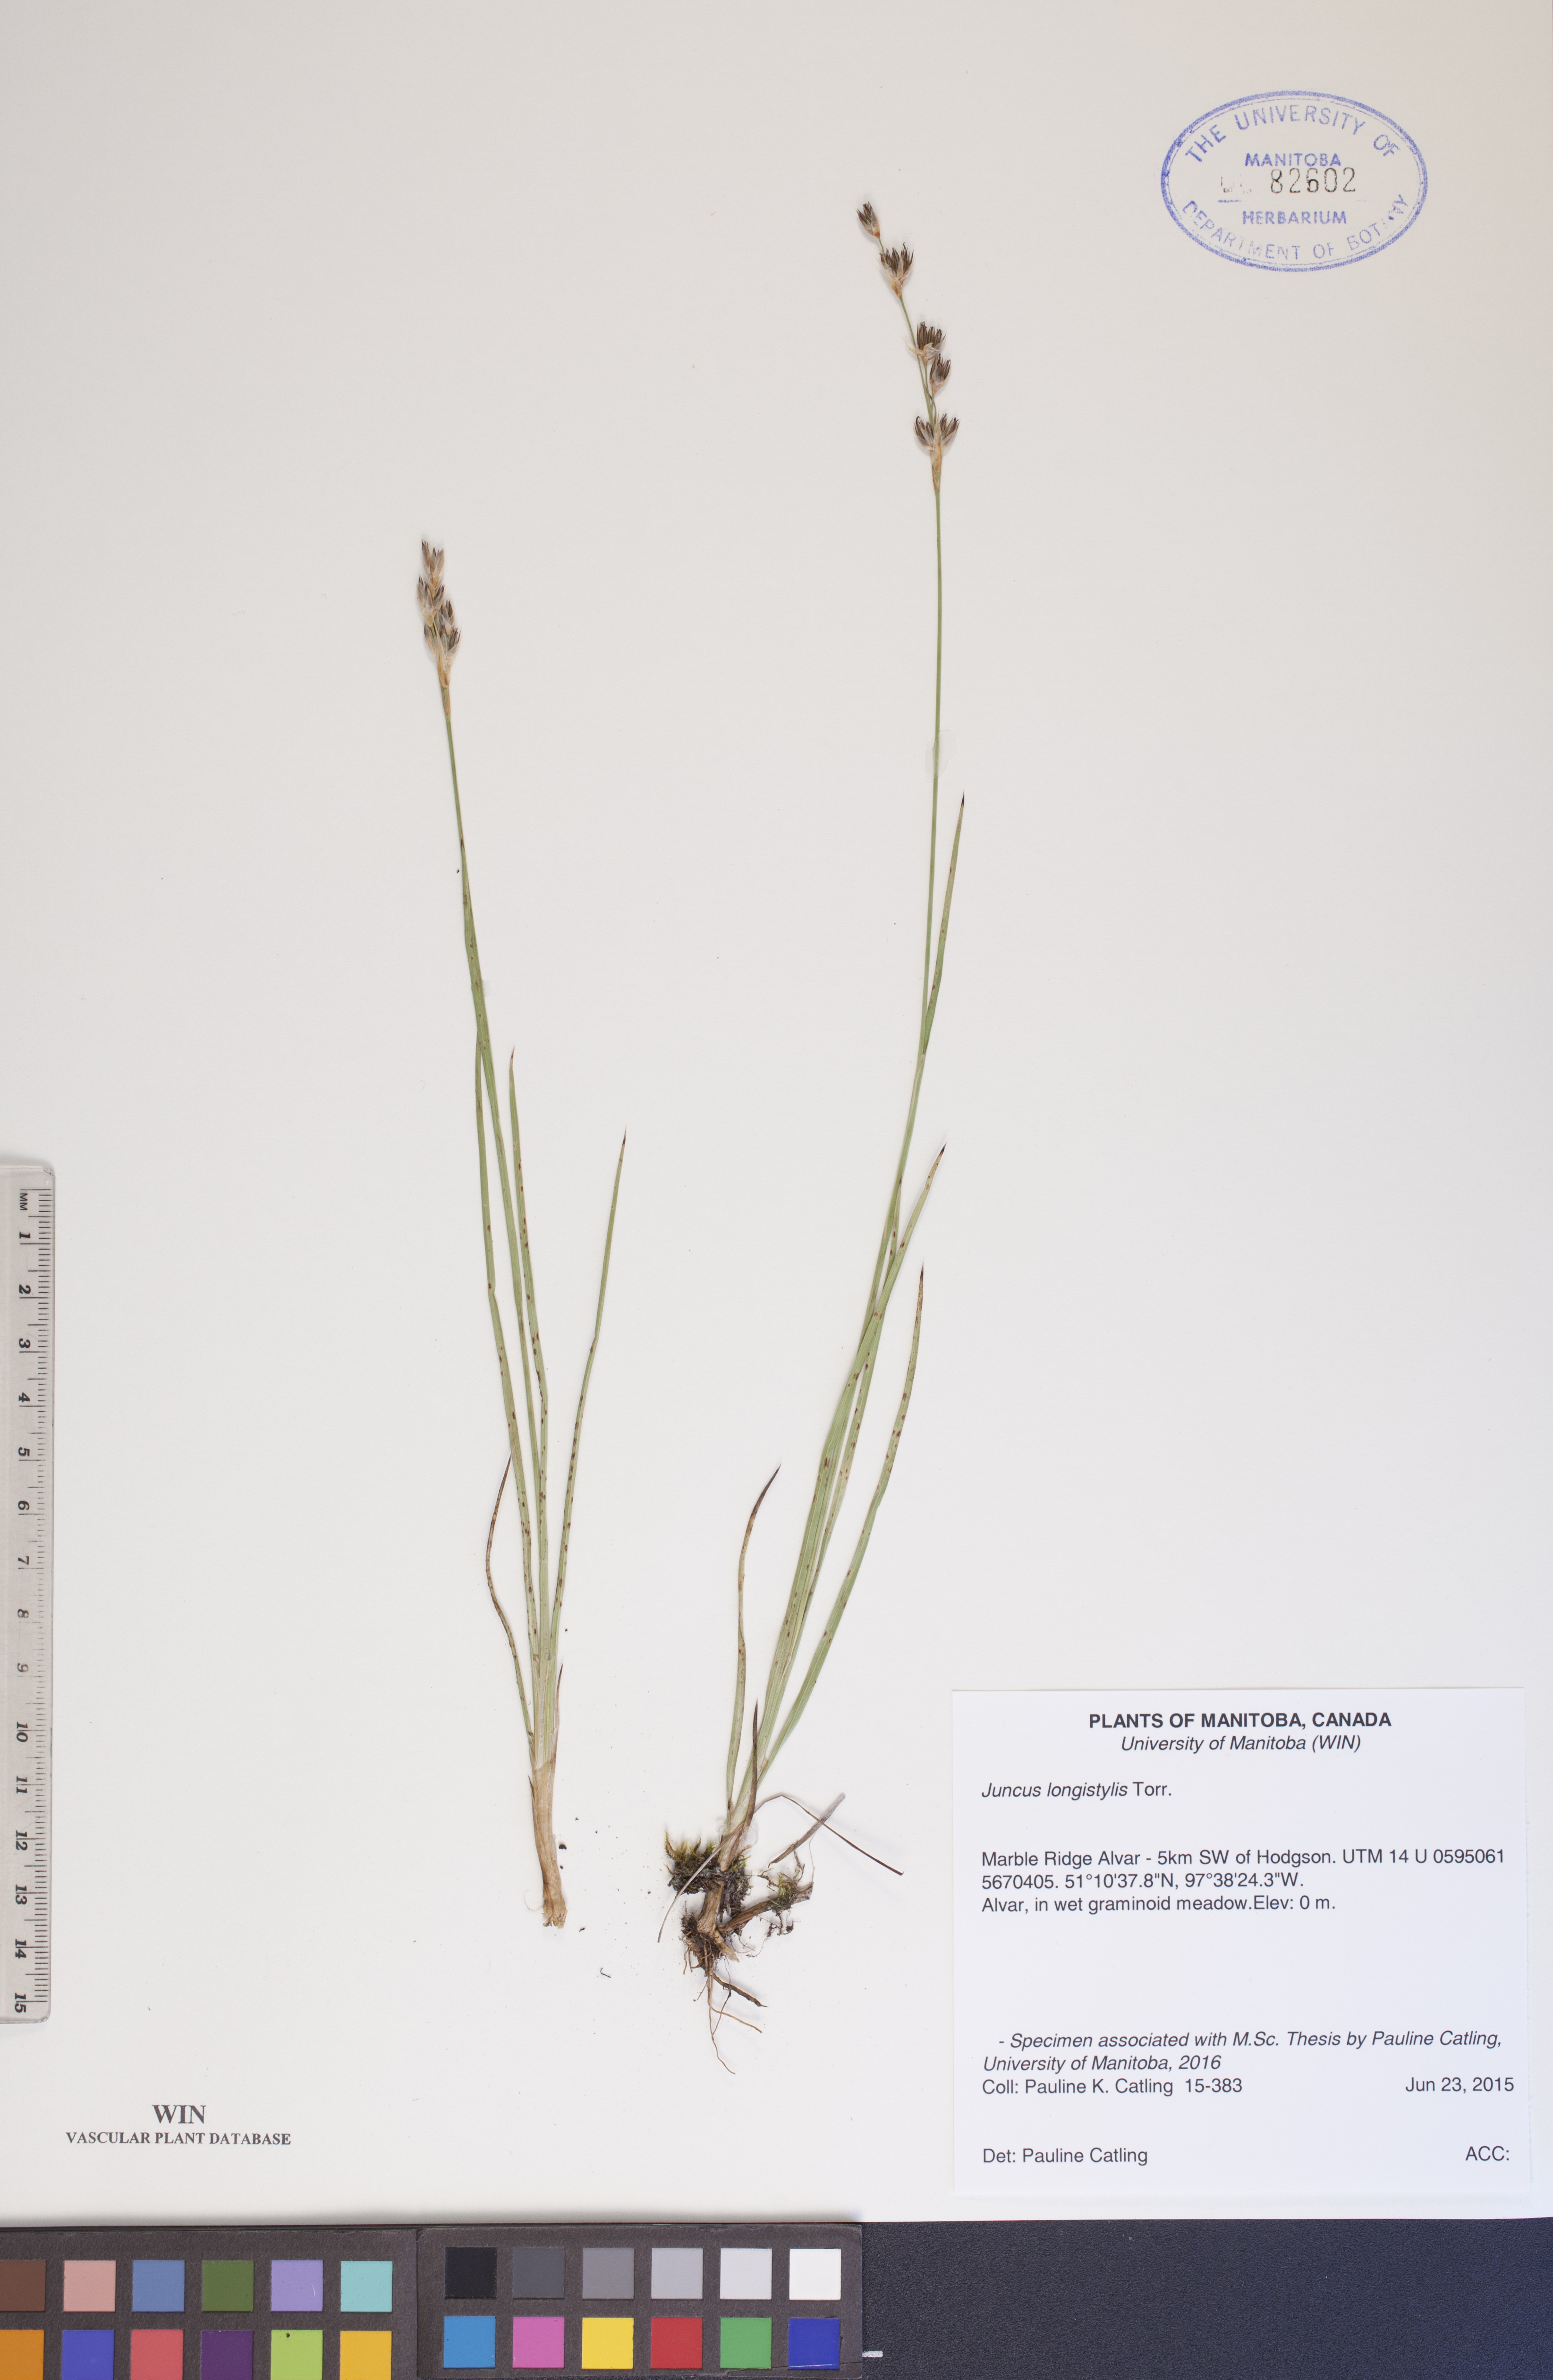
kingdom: Plantae
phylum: Tracheophyta
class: Liliopsida
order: Poales
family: Juncaceae
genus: Juncus
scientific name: Juncus longistylis
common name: Long-style rush
